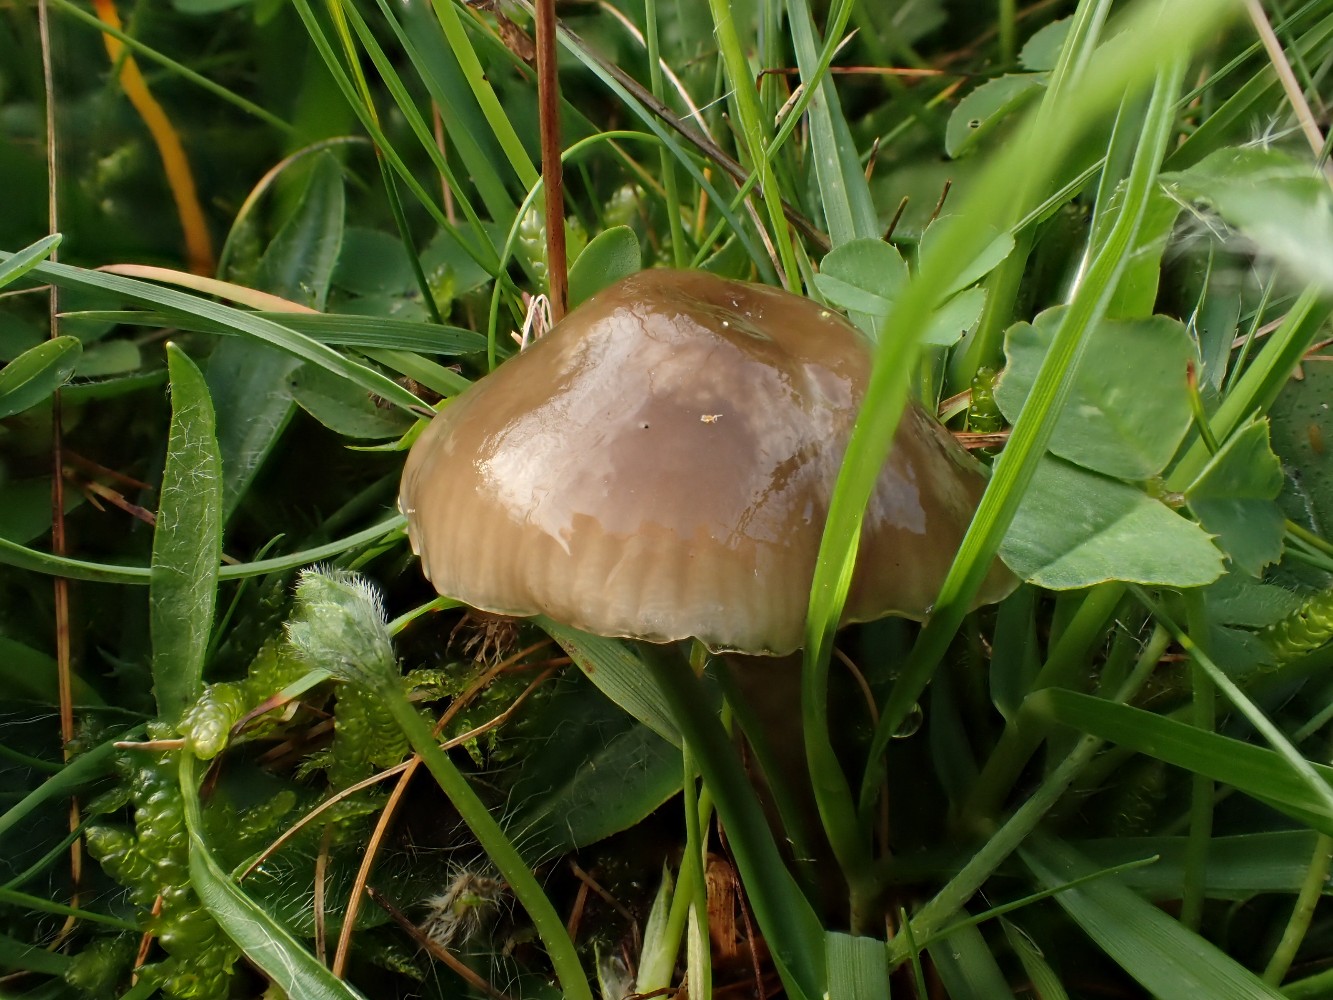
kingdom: Fungi
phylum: Basidiomycota
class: Agaricomycetes
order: Agaricales
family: Hygrophoraceae
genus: Gliophorus
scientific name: Gliophorus irrigatus
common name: slimet vokshat
